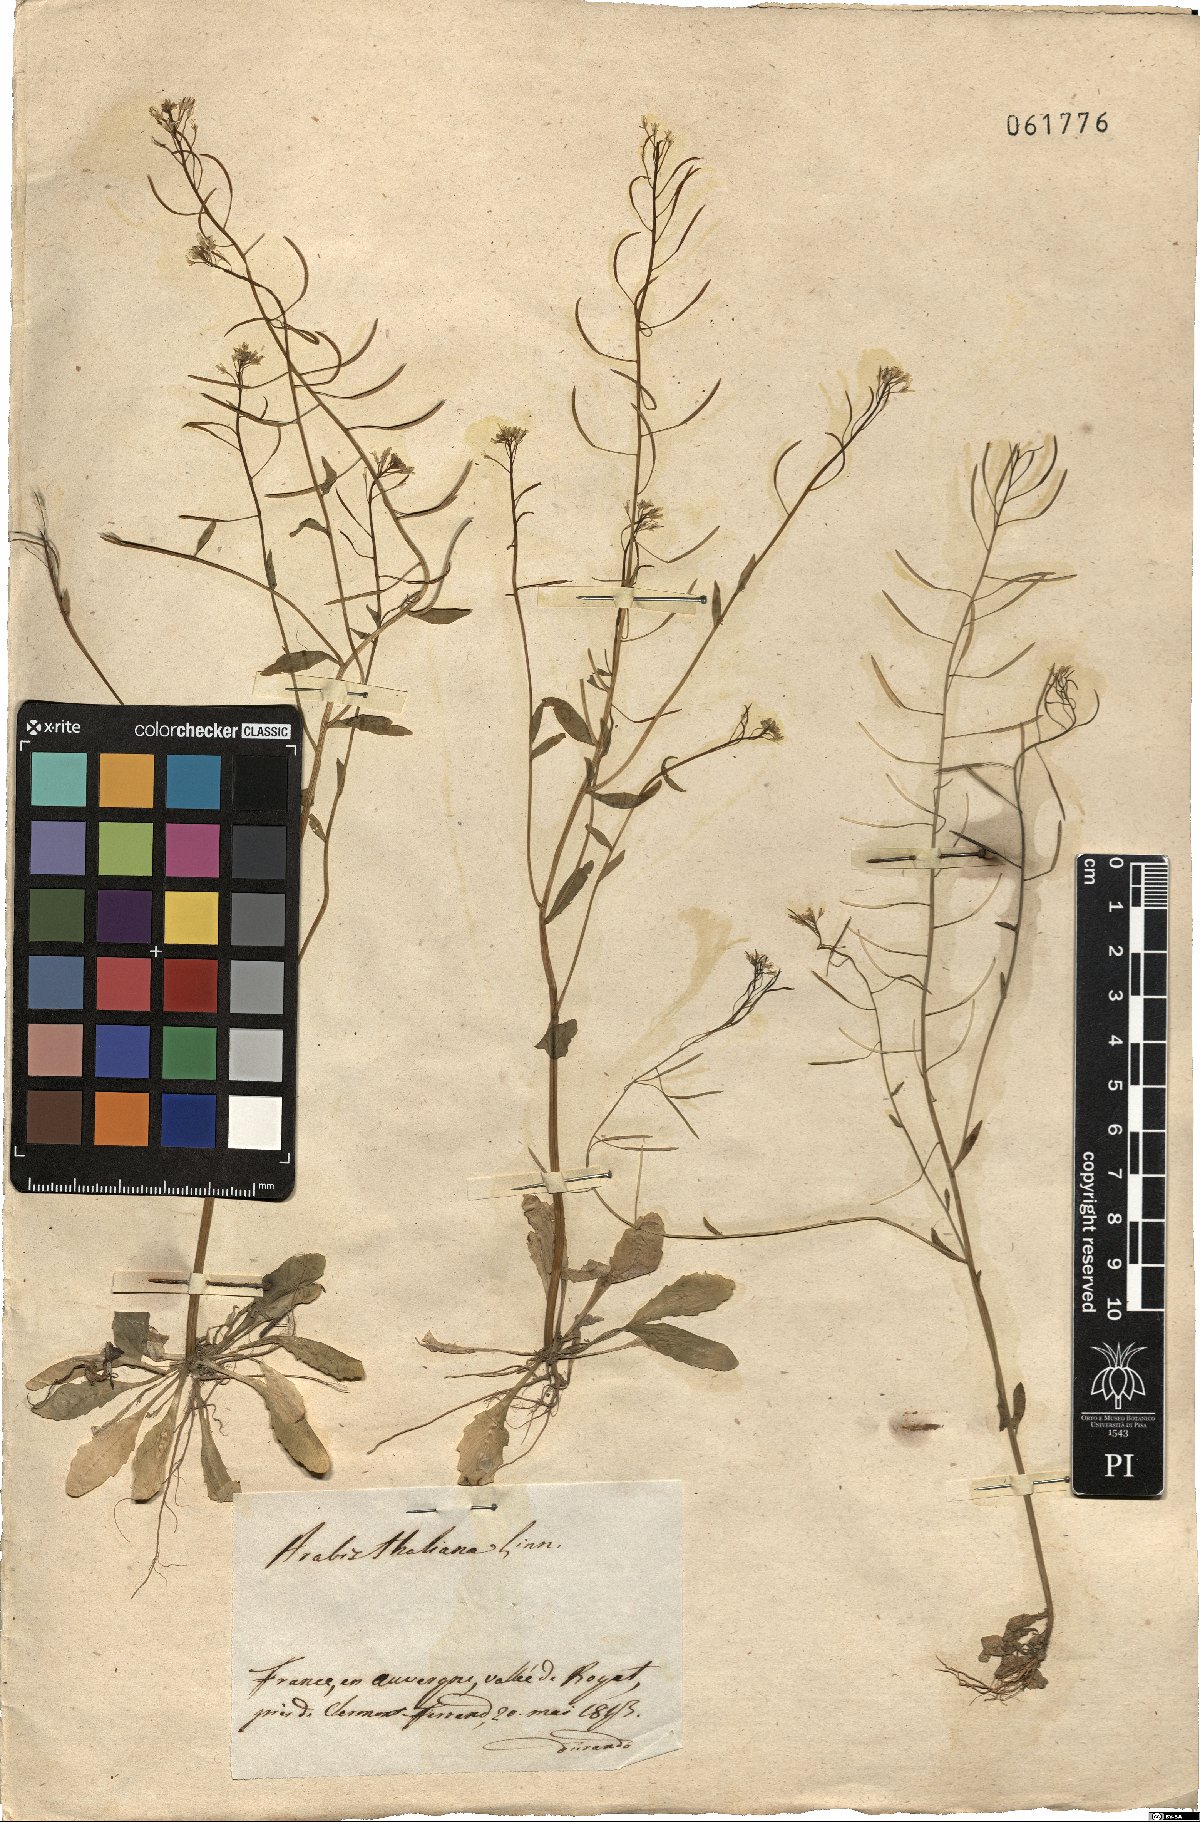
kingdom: Plantae
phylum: Tracheophyta
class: Magnoliopsida
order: Brassicales
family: Brassicaceae
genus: Arabidopsis
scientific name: Arabidopsis thaliana
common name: Thale cress
